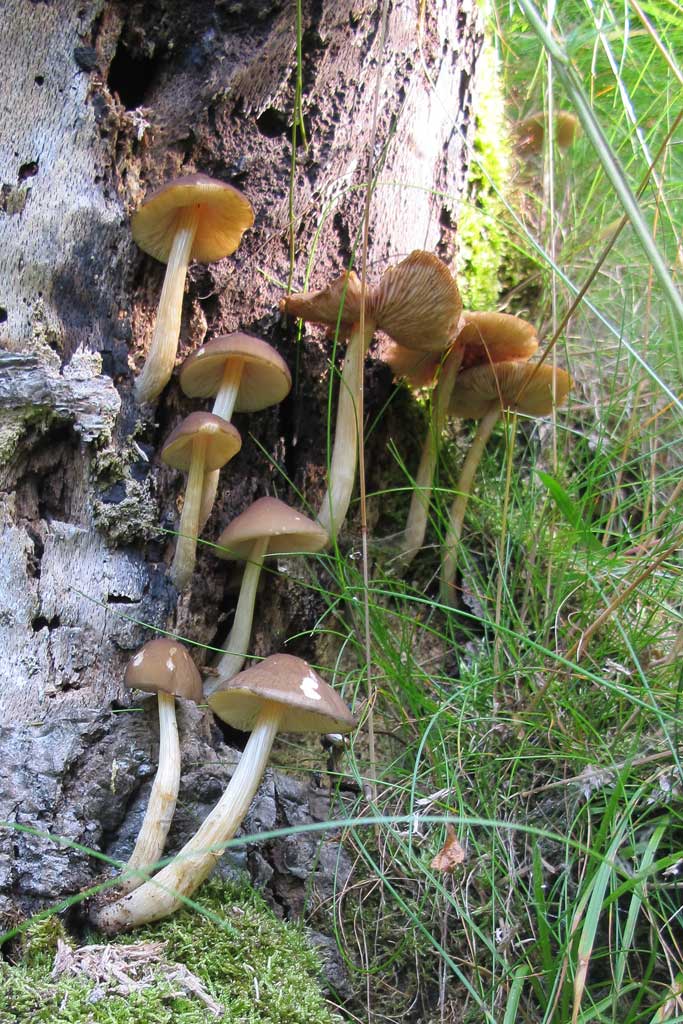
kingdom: Fungi
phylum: Basidiomycota
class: Agaricomycetes
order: Agaricales
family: Pluteaceae
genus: Pluteus
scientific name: Pluteus phlebophorus
